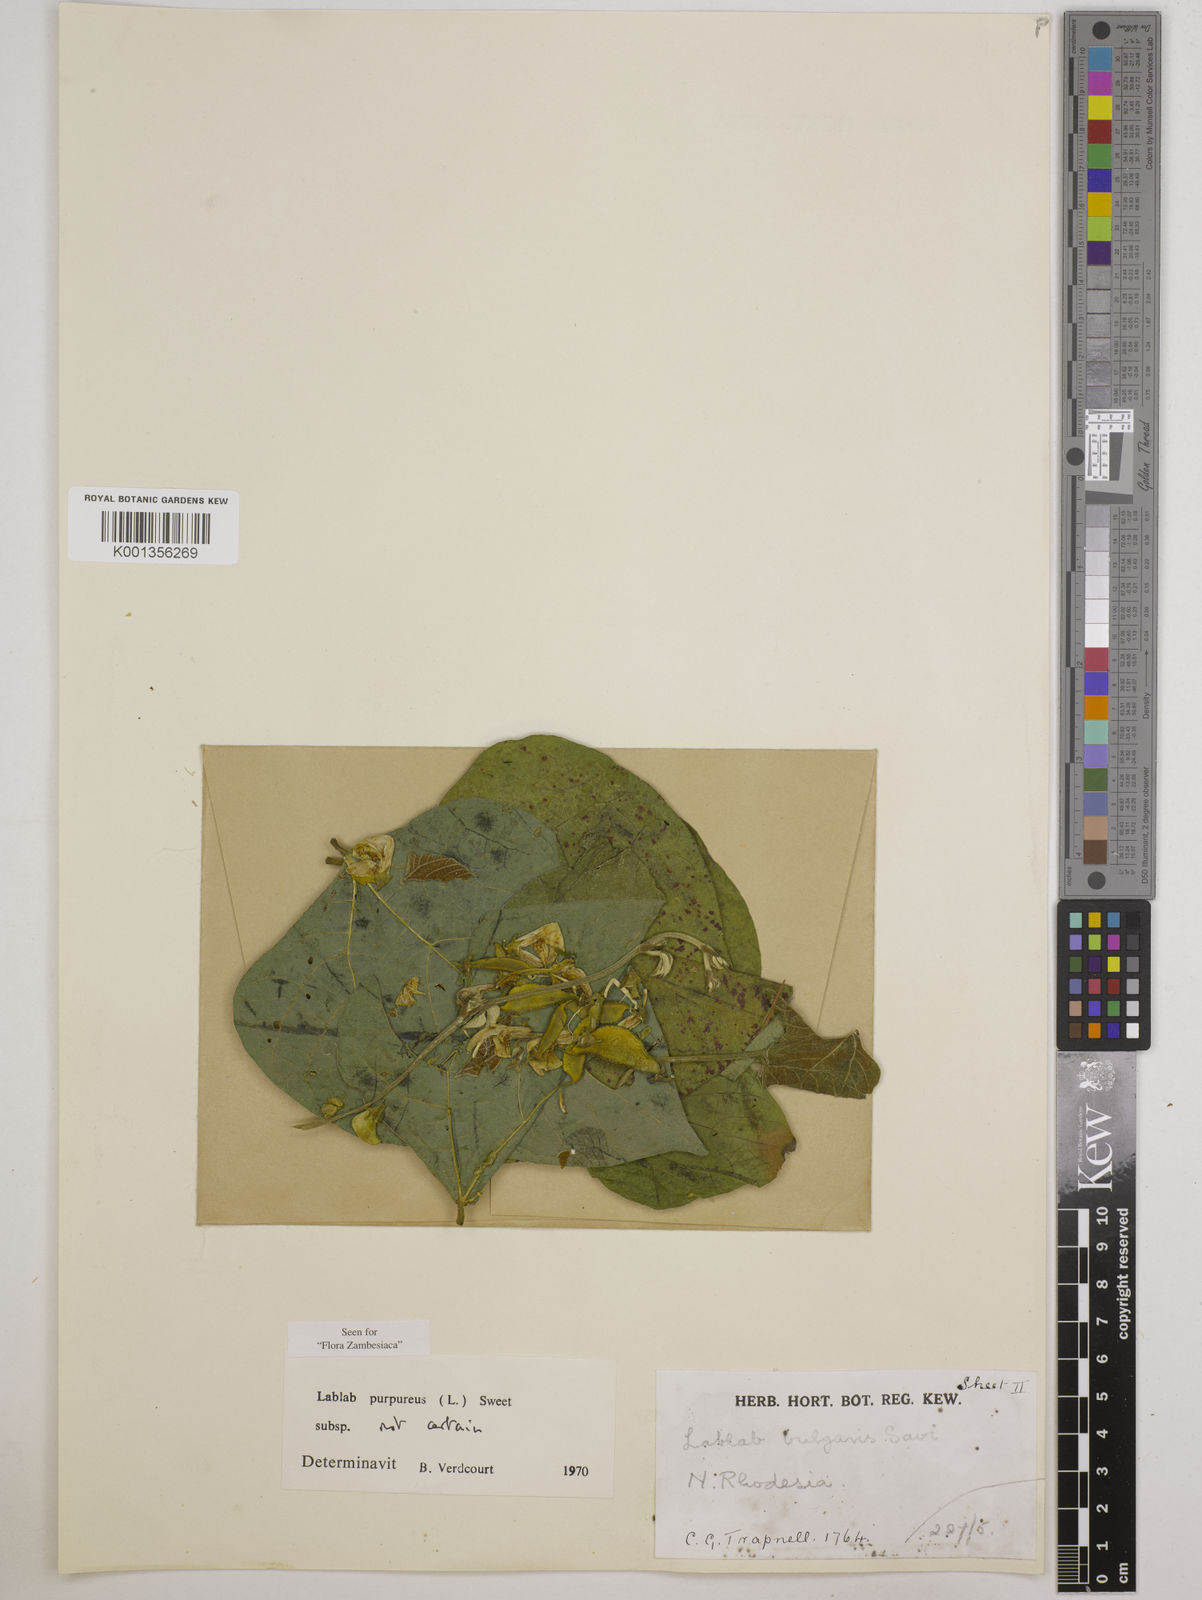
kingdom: Plantae
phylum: Tracheophyta
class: Magnoliopsida
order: Fabales
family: Fabaceae
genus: Lablab
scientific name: Lablab purpureus
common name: Lablab-bean
